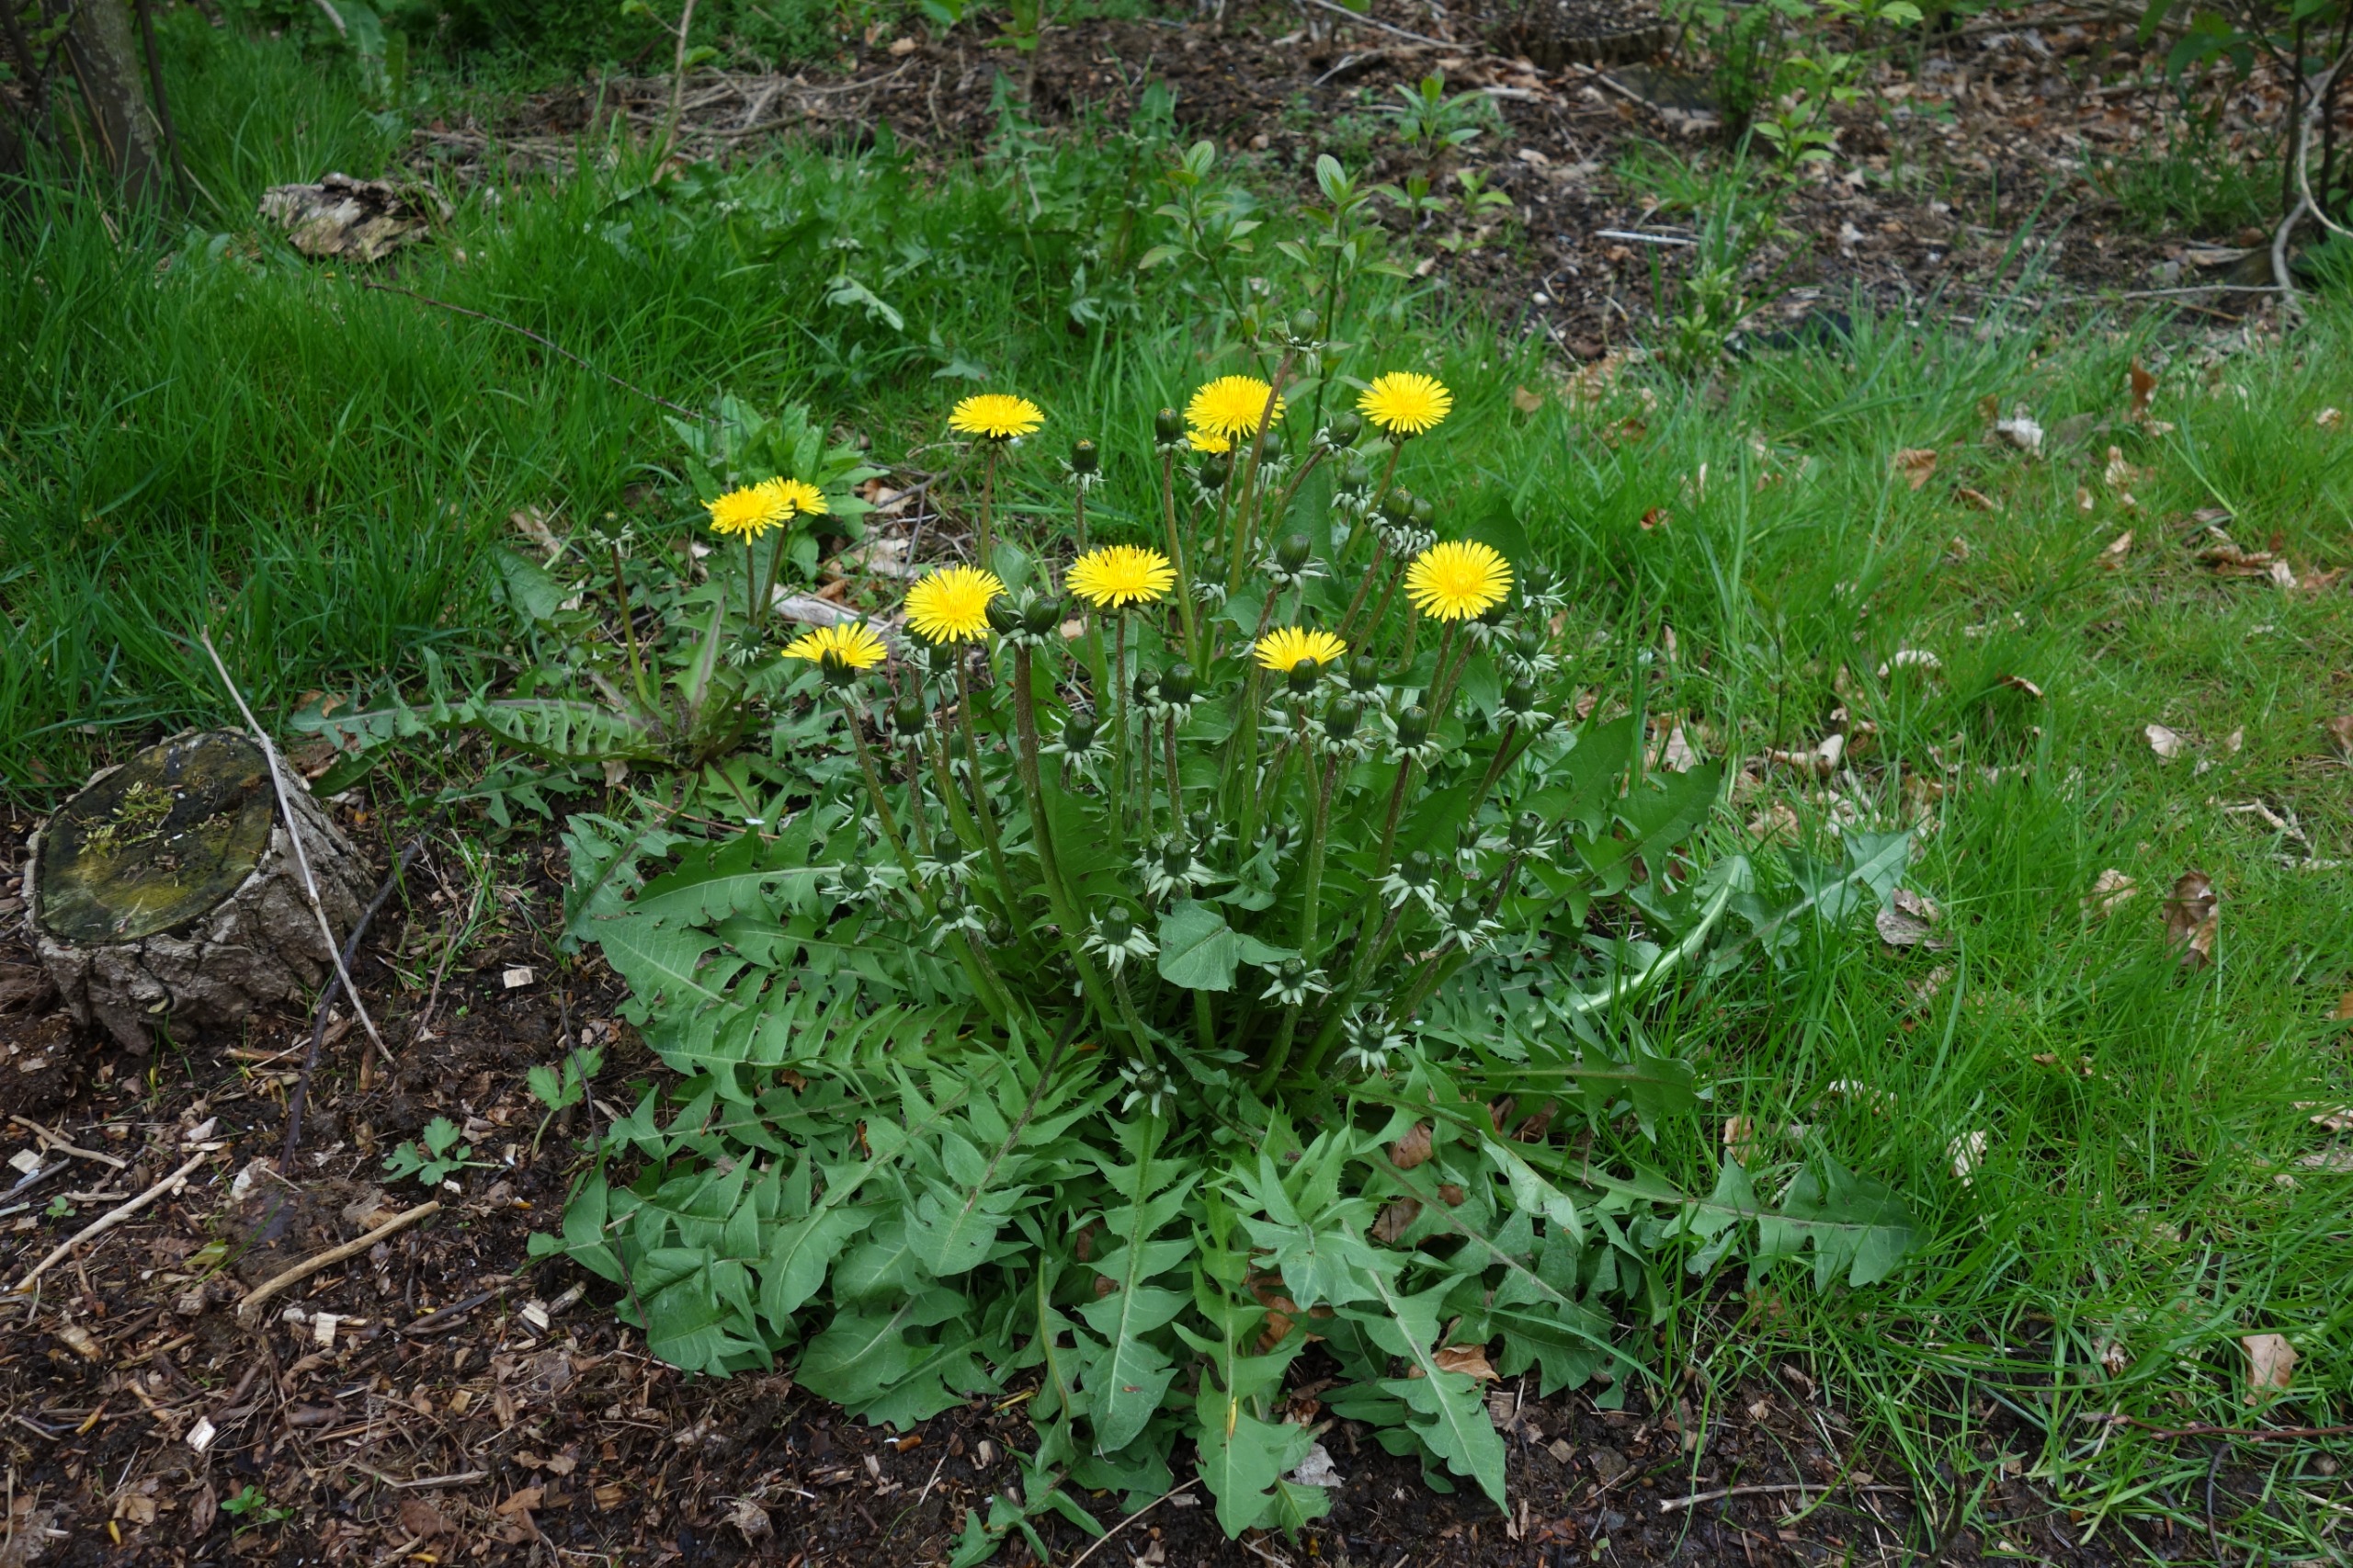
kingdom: Plantae
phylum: Tracheophyta
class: Magnoliopsida
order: Asterales
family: Asteraceae
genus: Taraxacum
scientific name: Taraxacum
